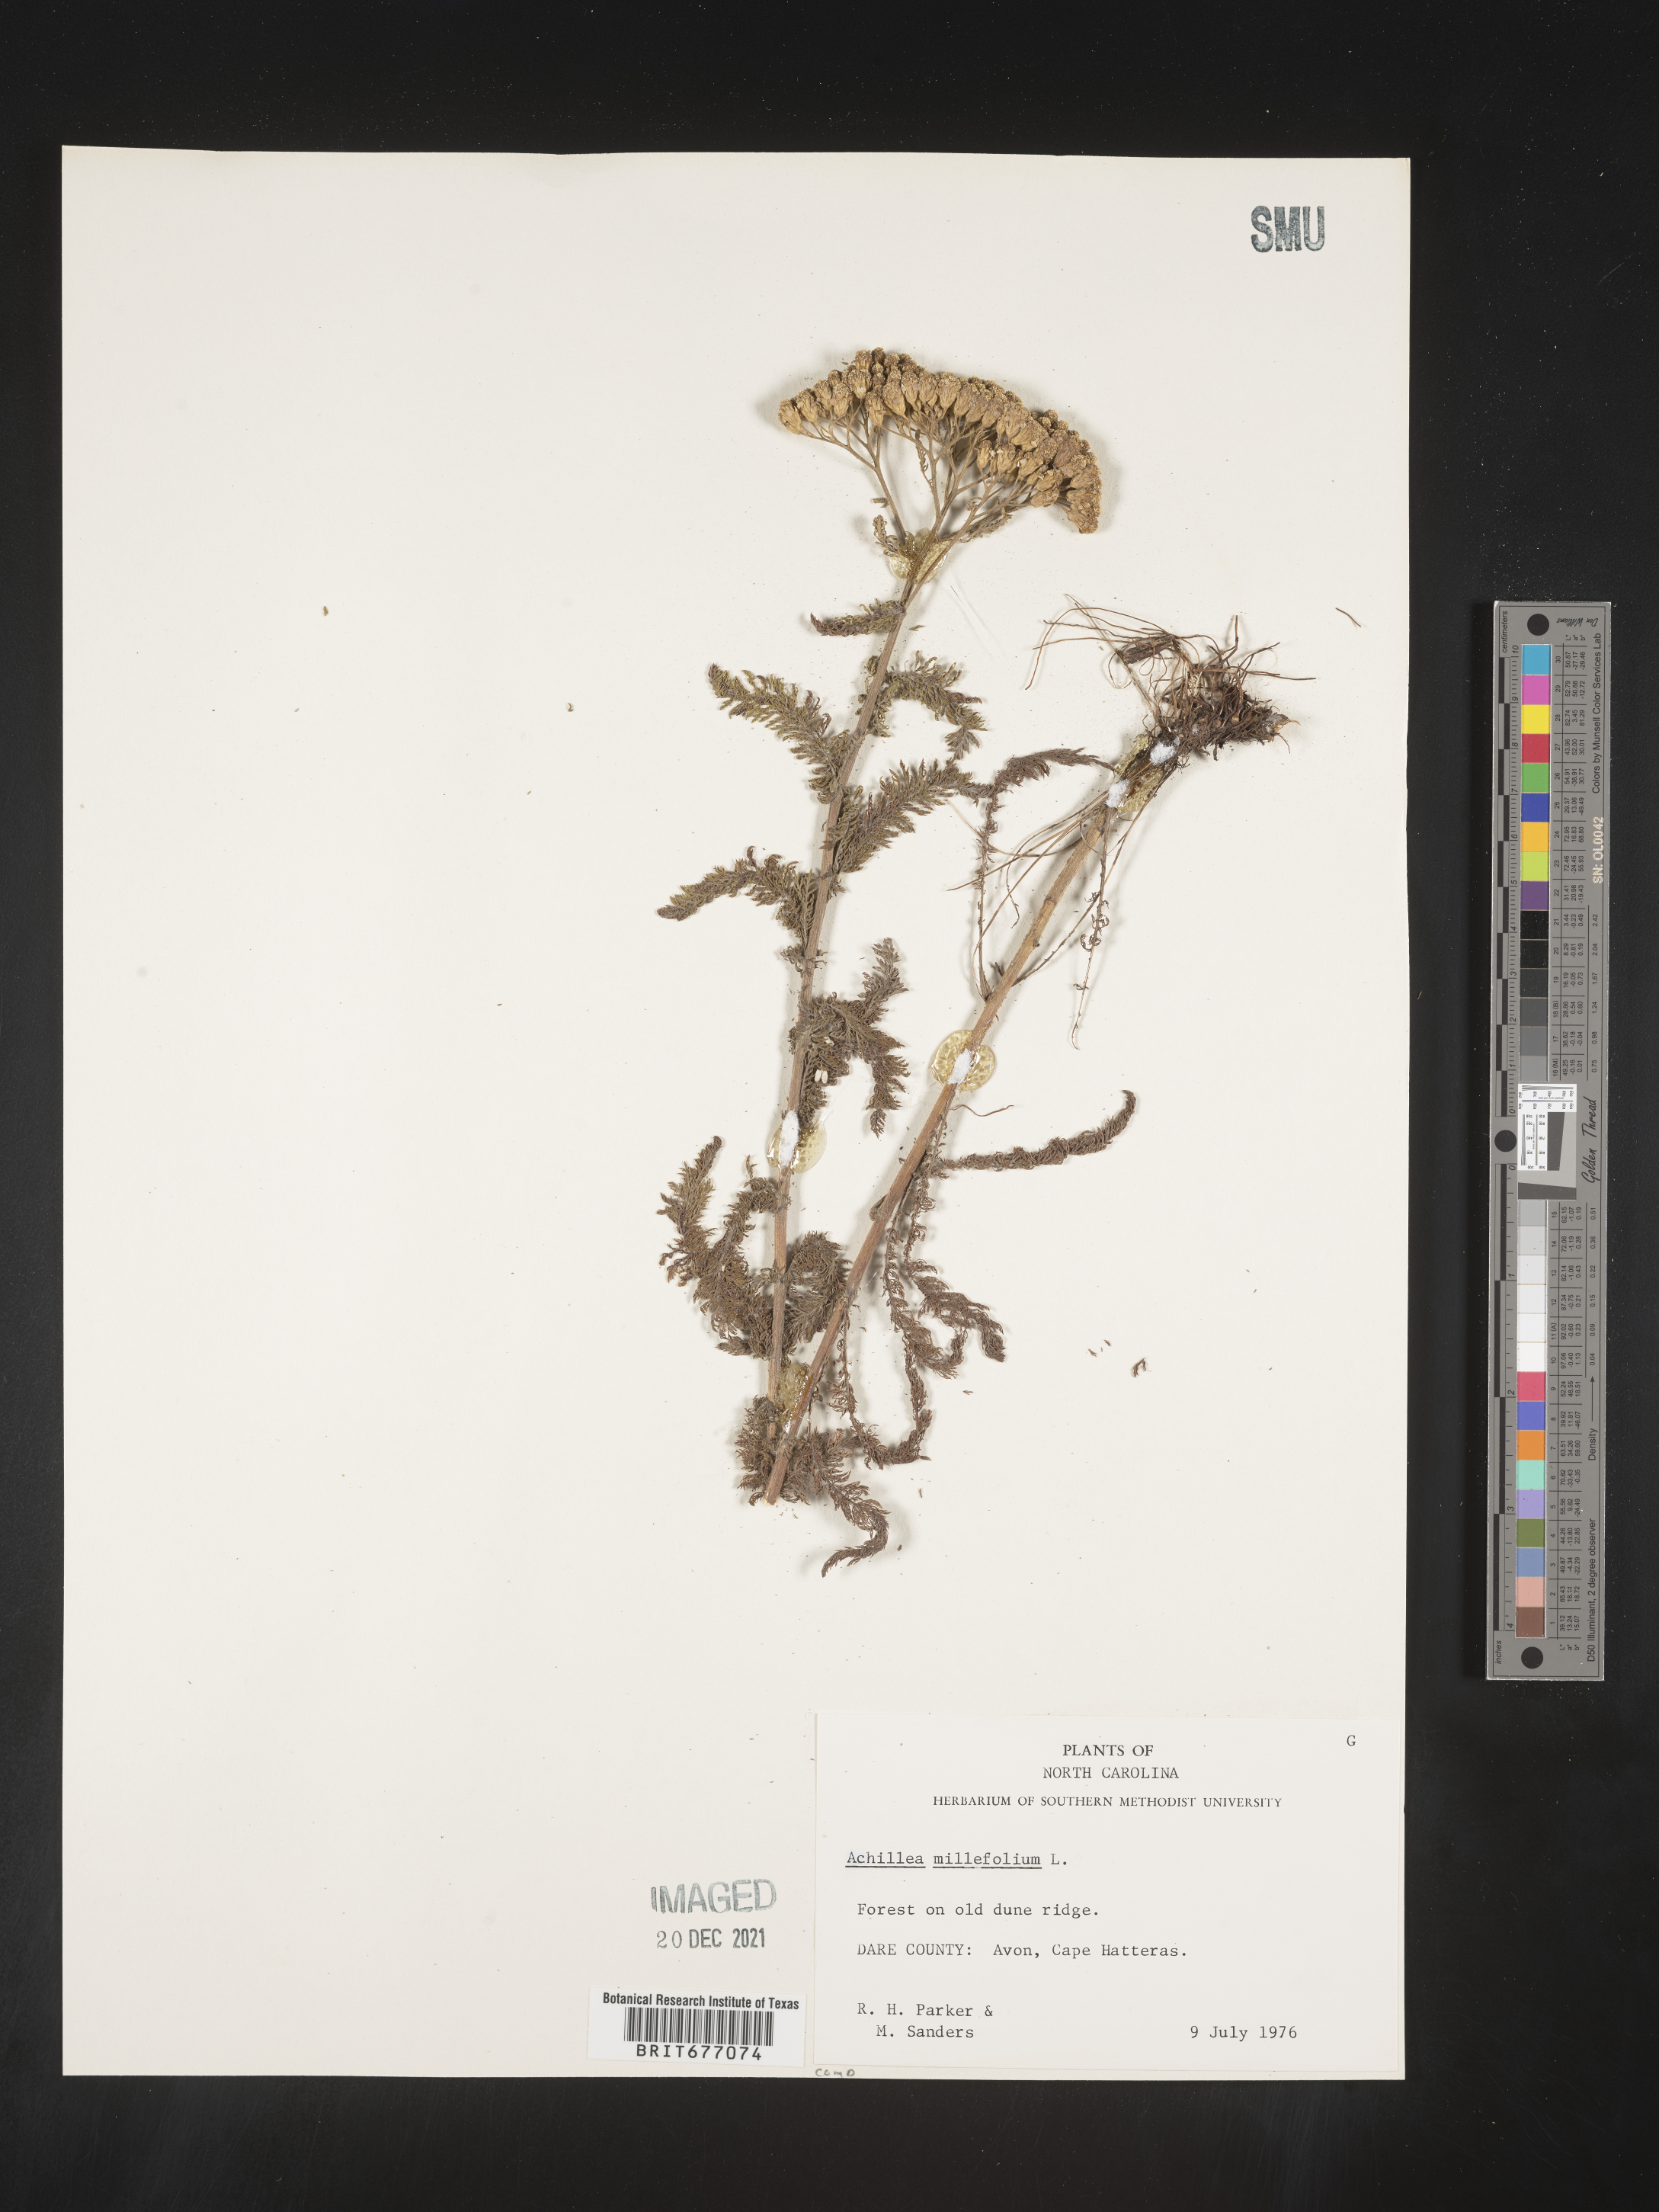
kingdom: Plantae
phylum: Tracheophyta
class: Magnoliopsida
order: Asterales
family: Asteraceae
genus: Achillea
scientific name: Achillea millefolium
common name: Yarrow
